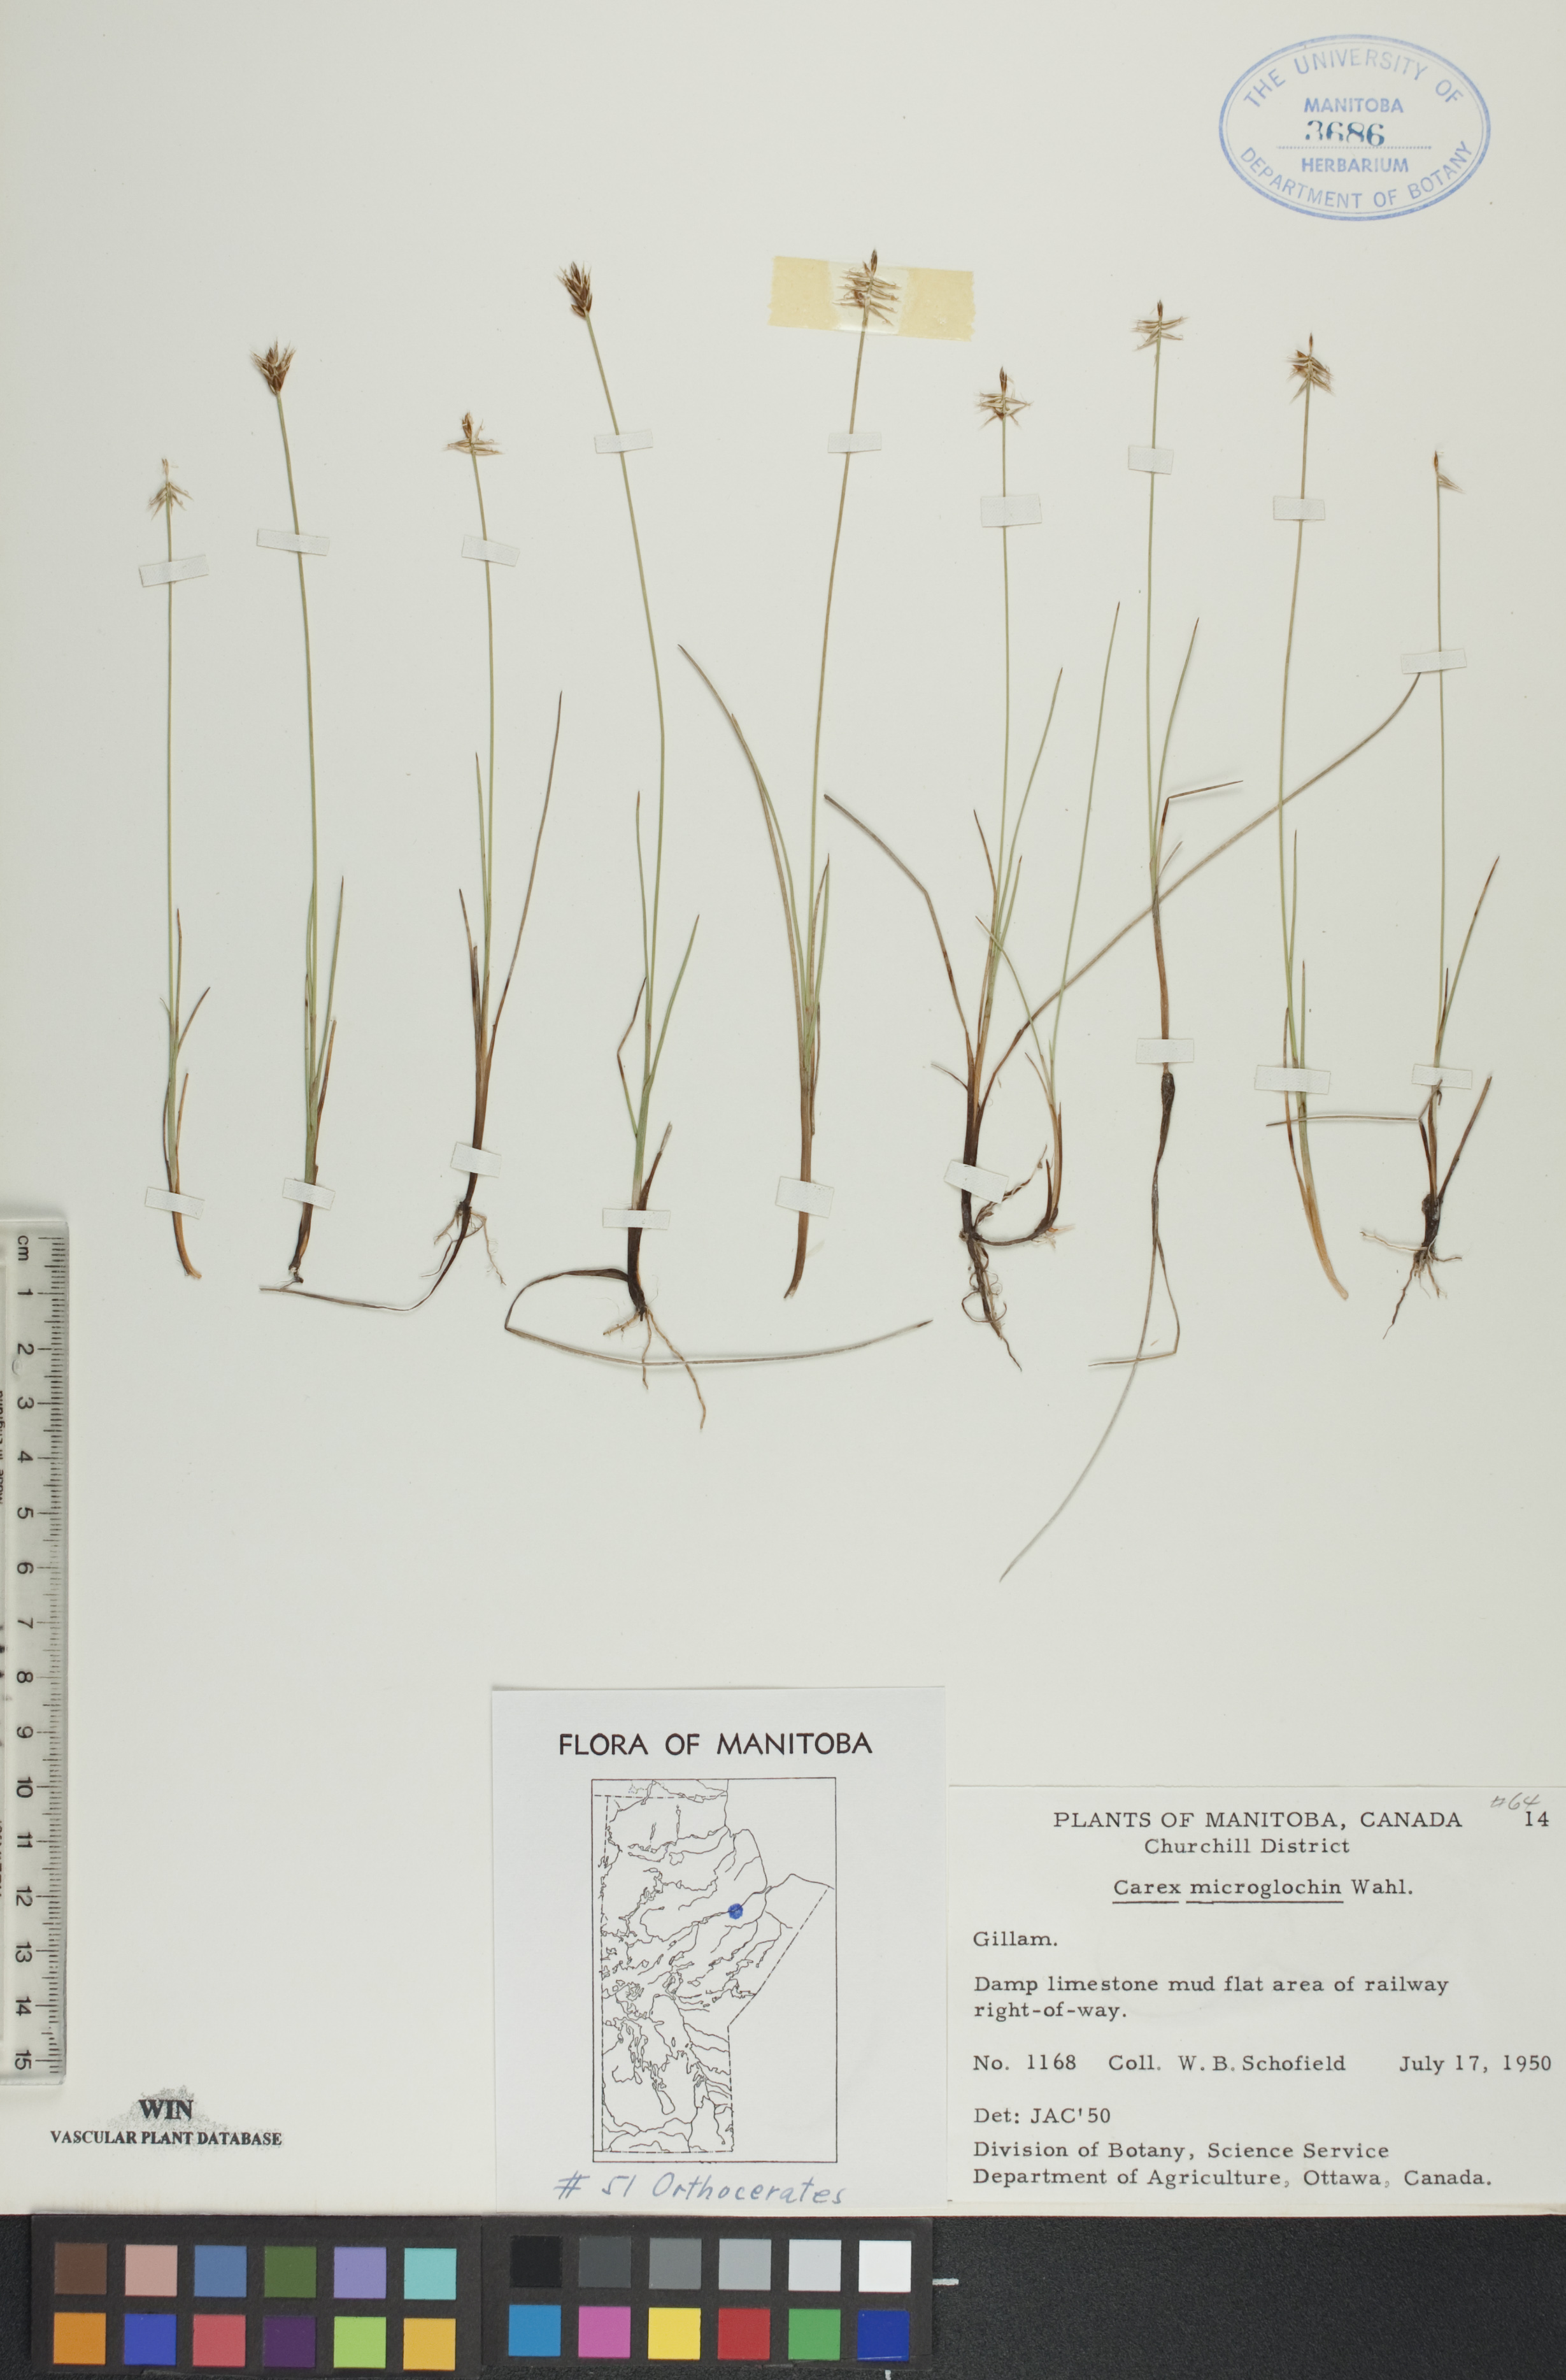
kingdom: Plantae
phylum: Tracheophyta
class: Liliopsida
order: Poales
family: Cyperaceae
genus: Carex
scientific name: Carex microglochin
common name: Bristle sedge
